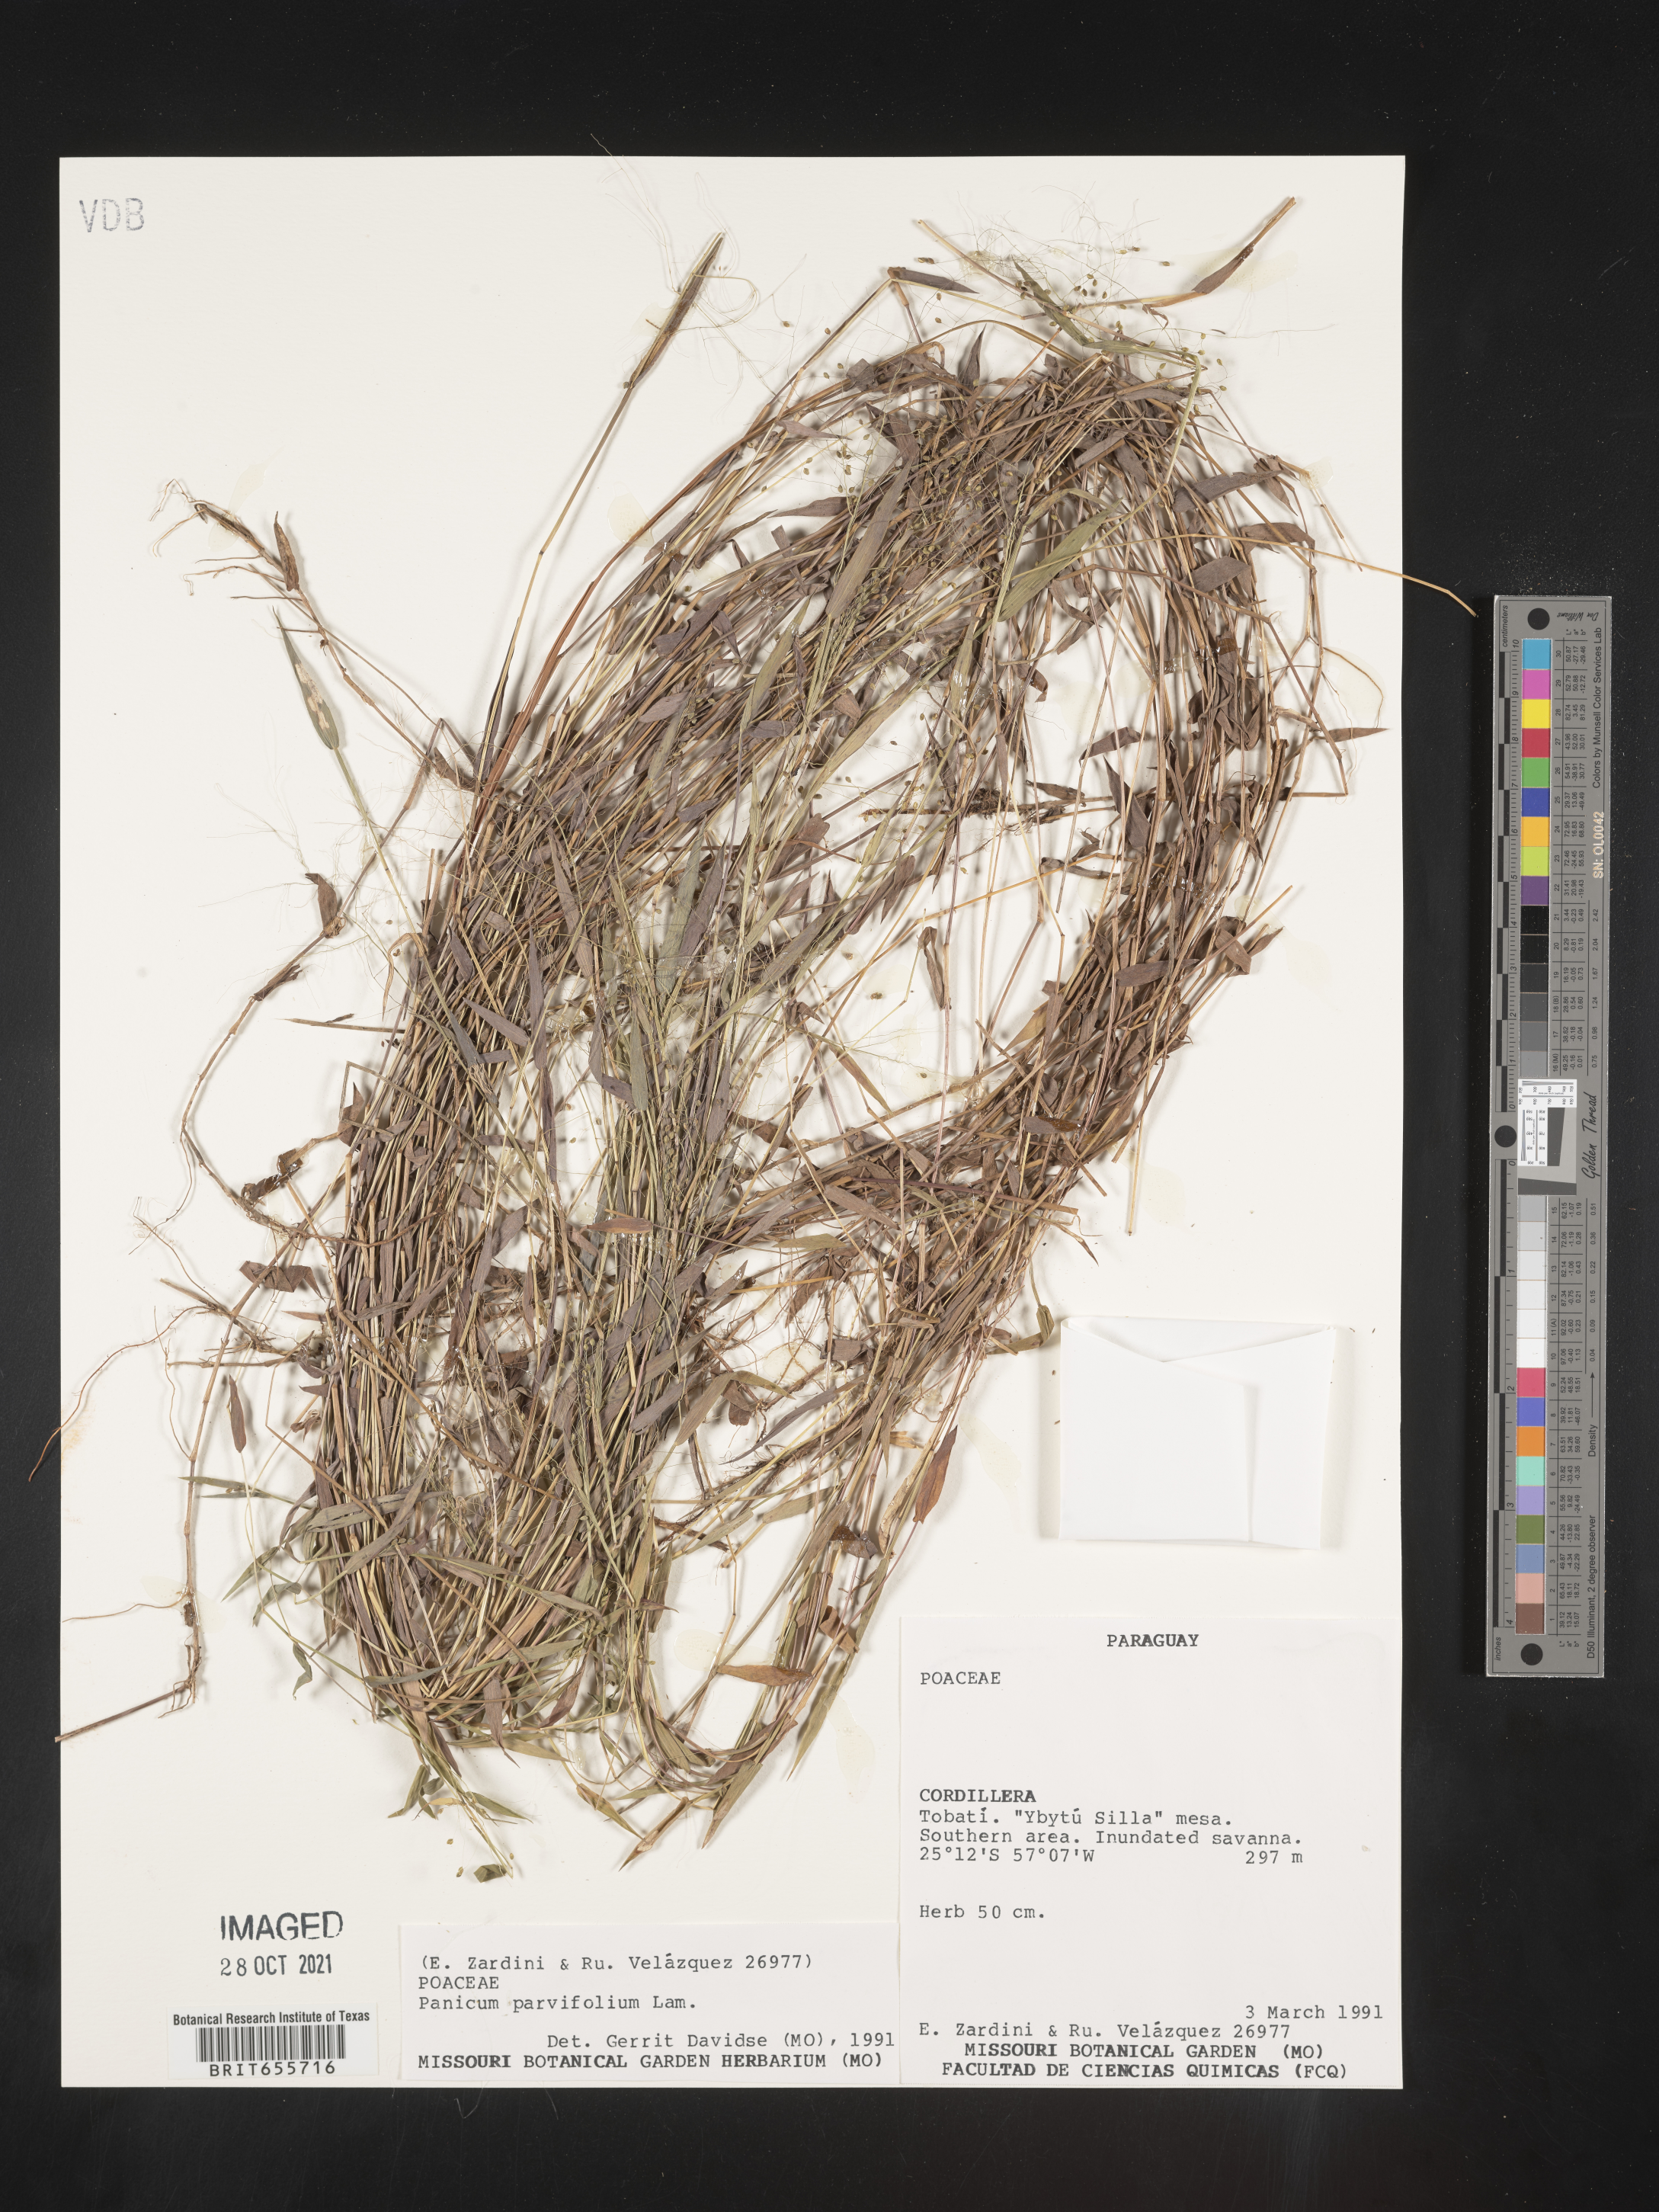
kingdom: Plantae
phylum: Tracheophyta
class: Liliopsida
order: Poales
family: Poaceae
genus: Panicum
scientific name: Panicum
